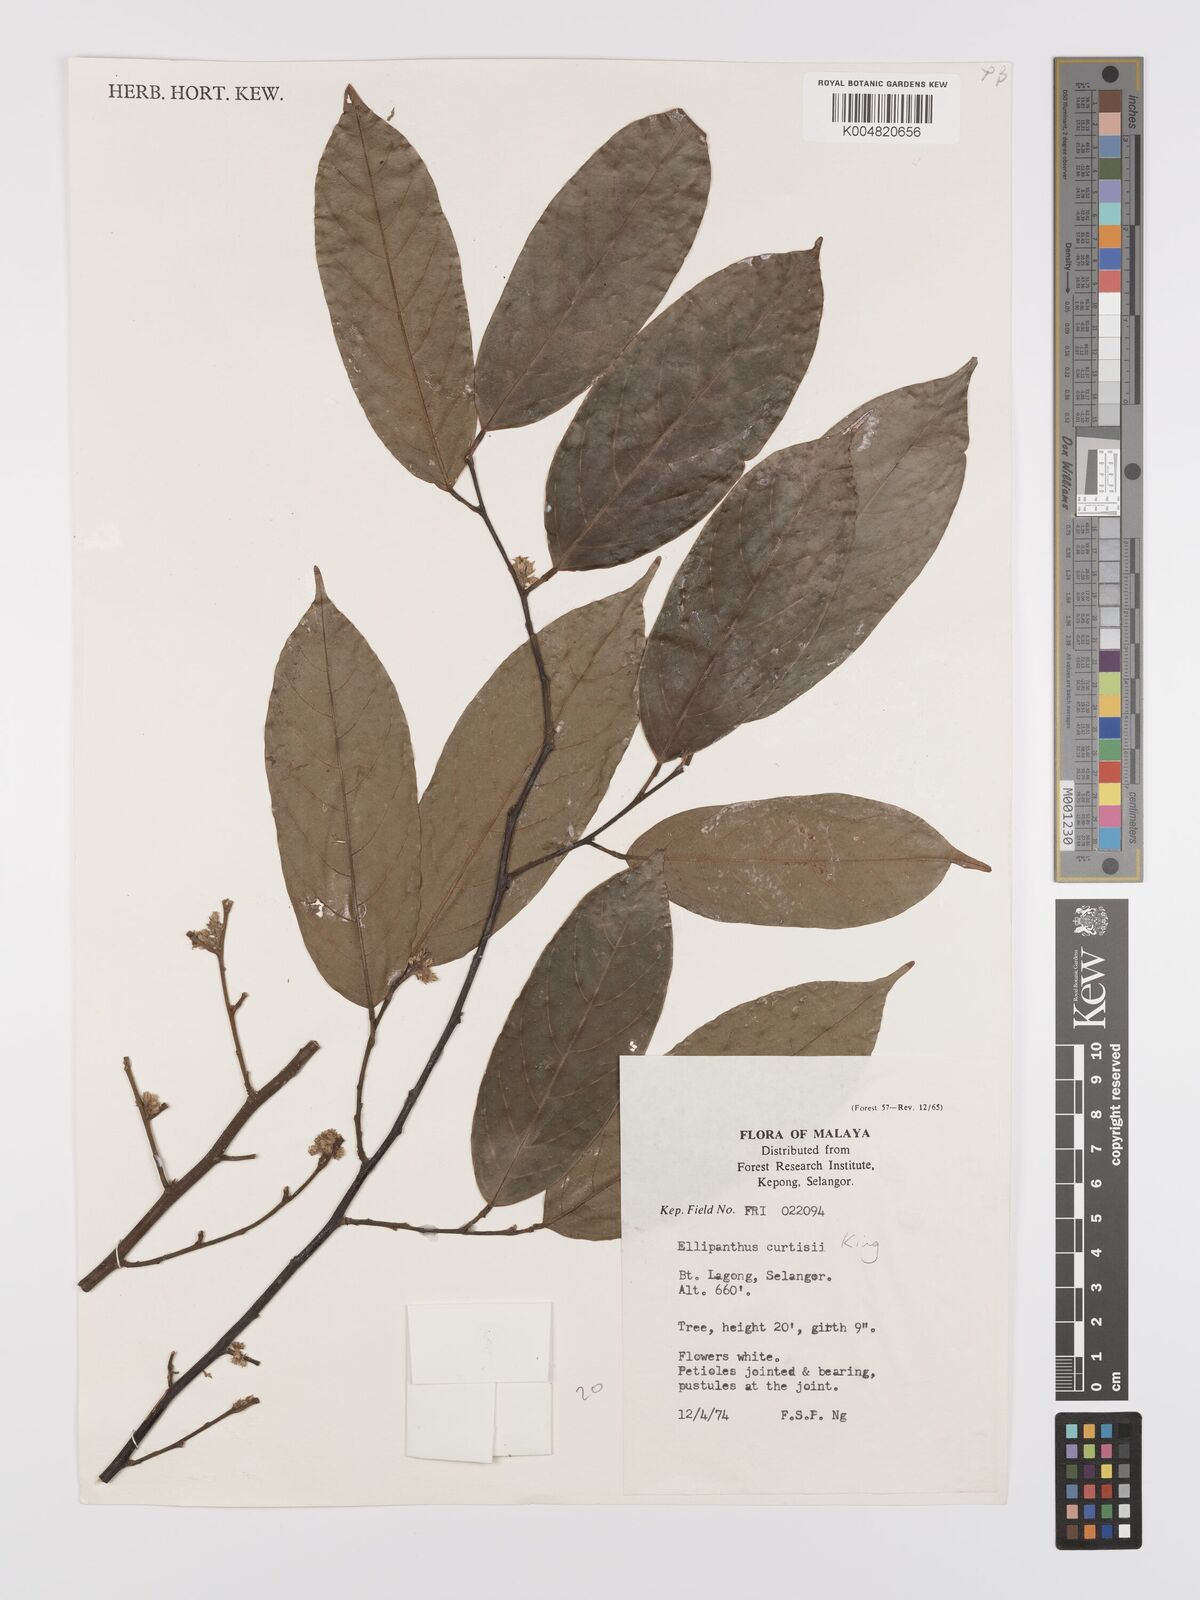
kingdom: Plantae
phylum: Tracheophyta
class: Magnoliopsida
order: Oxalidales
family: Connaraceae
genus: Ellipanthus
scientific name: Ellipanthus tomentosus
